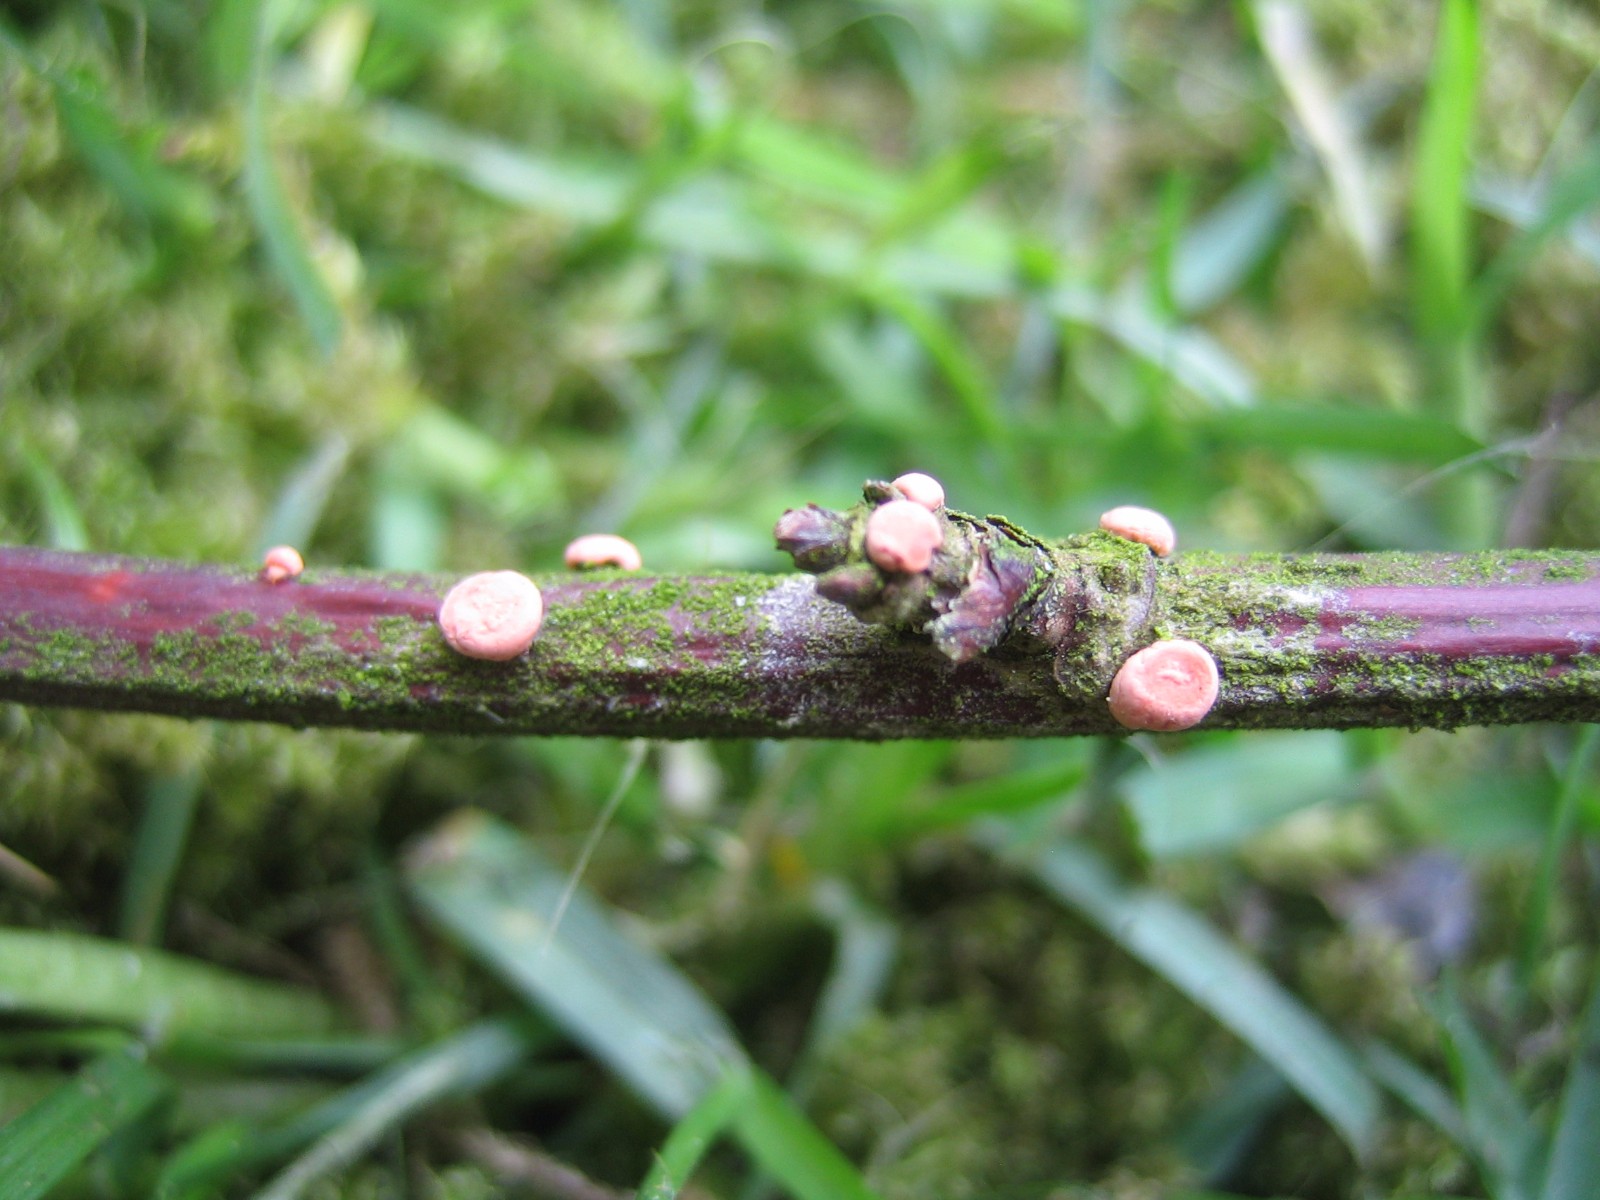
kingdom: Fungi
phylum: Ascomycota
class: Sordariomycetes
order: Hypocreales
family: Nectriaceae
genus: Nectria
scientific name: Nectria
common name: cinnobersvamp
